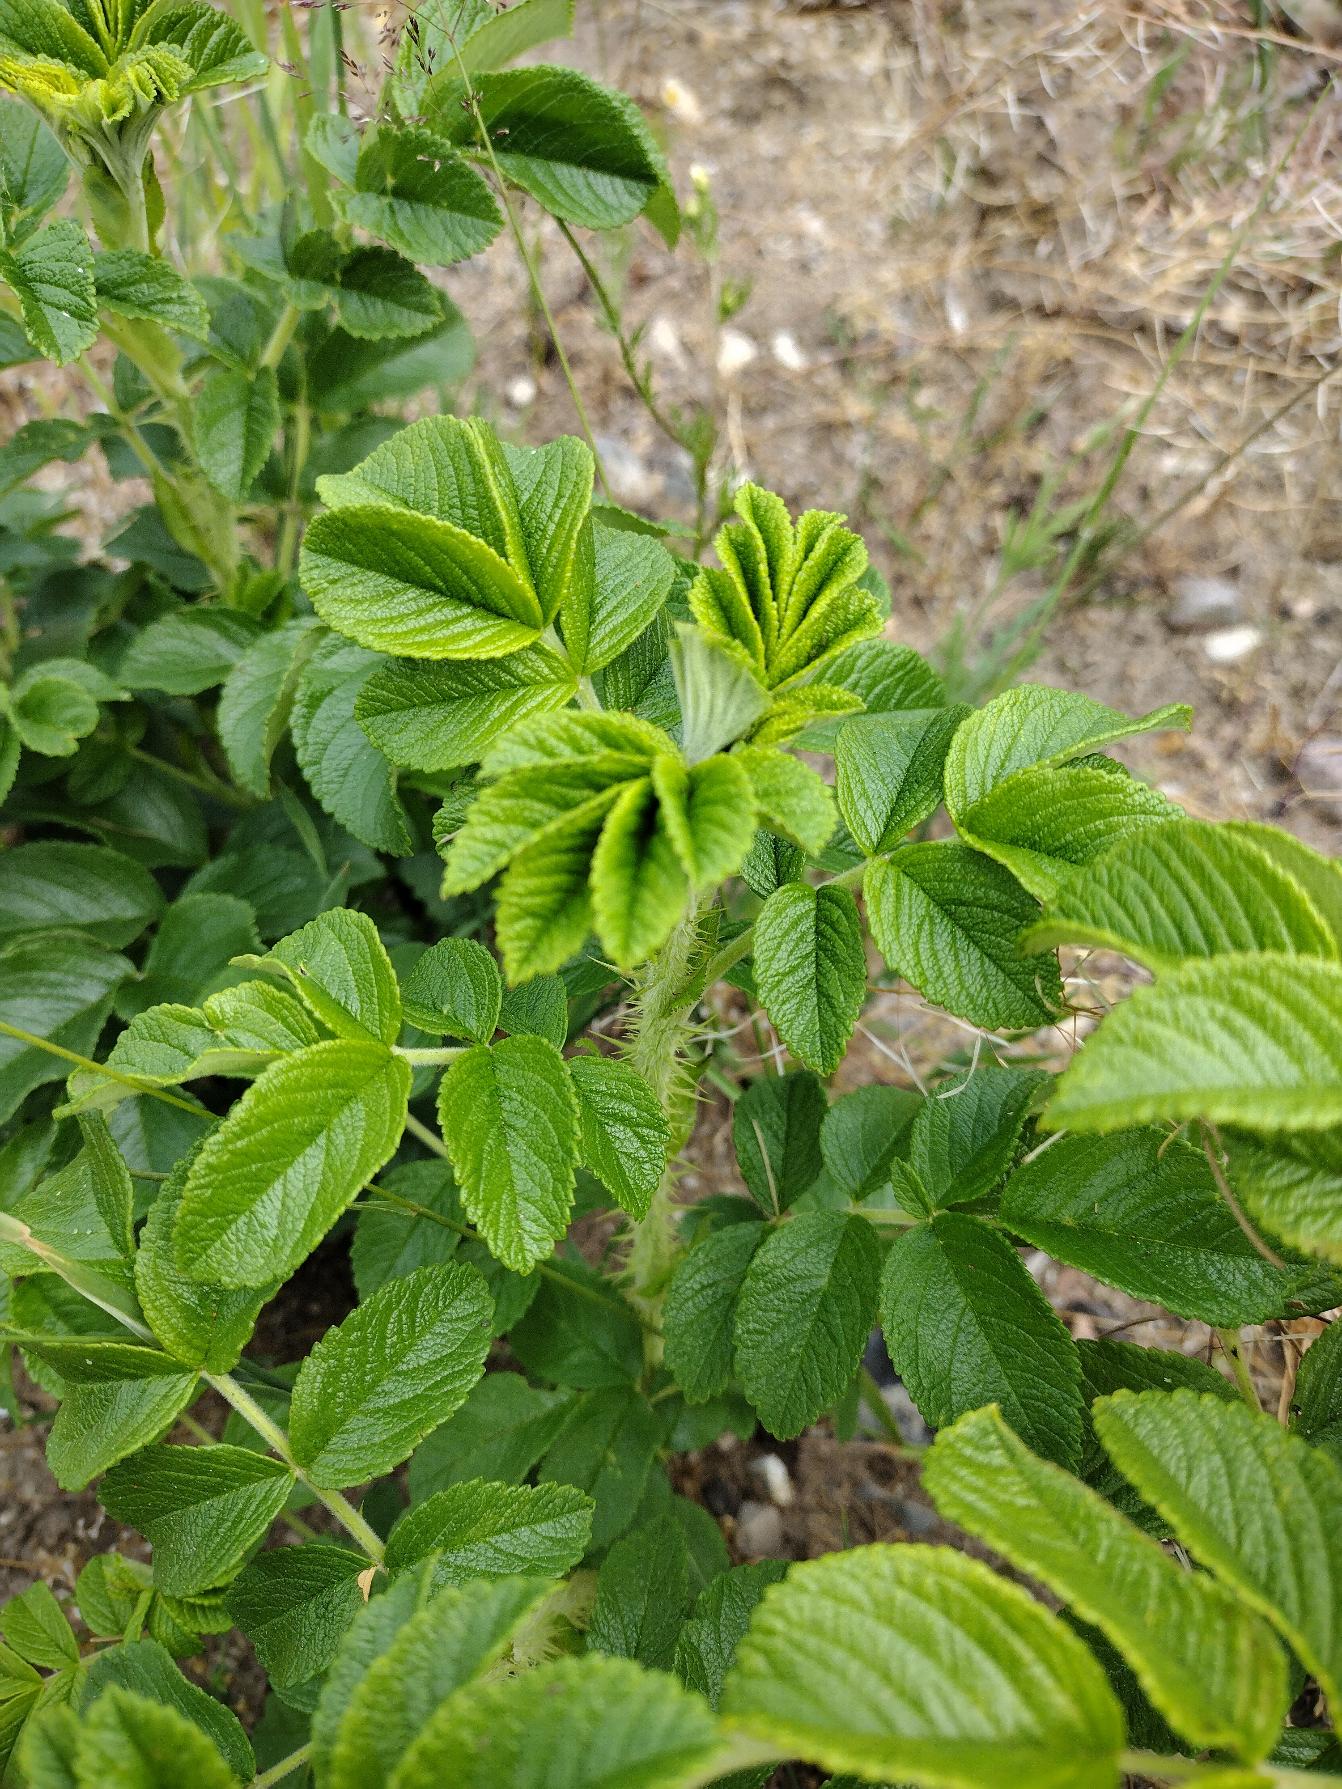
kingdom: Plantae
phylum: Tracheophyta
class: Magnoliopsida
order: Rosales
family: Rosaceae
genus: Rosa
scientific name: Rosa rugosa
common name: Rynket rose
